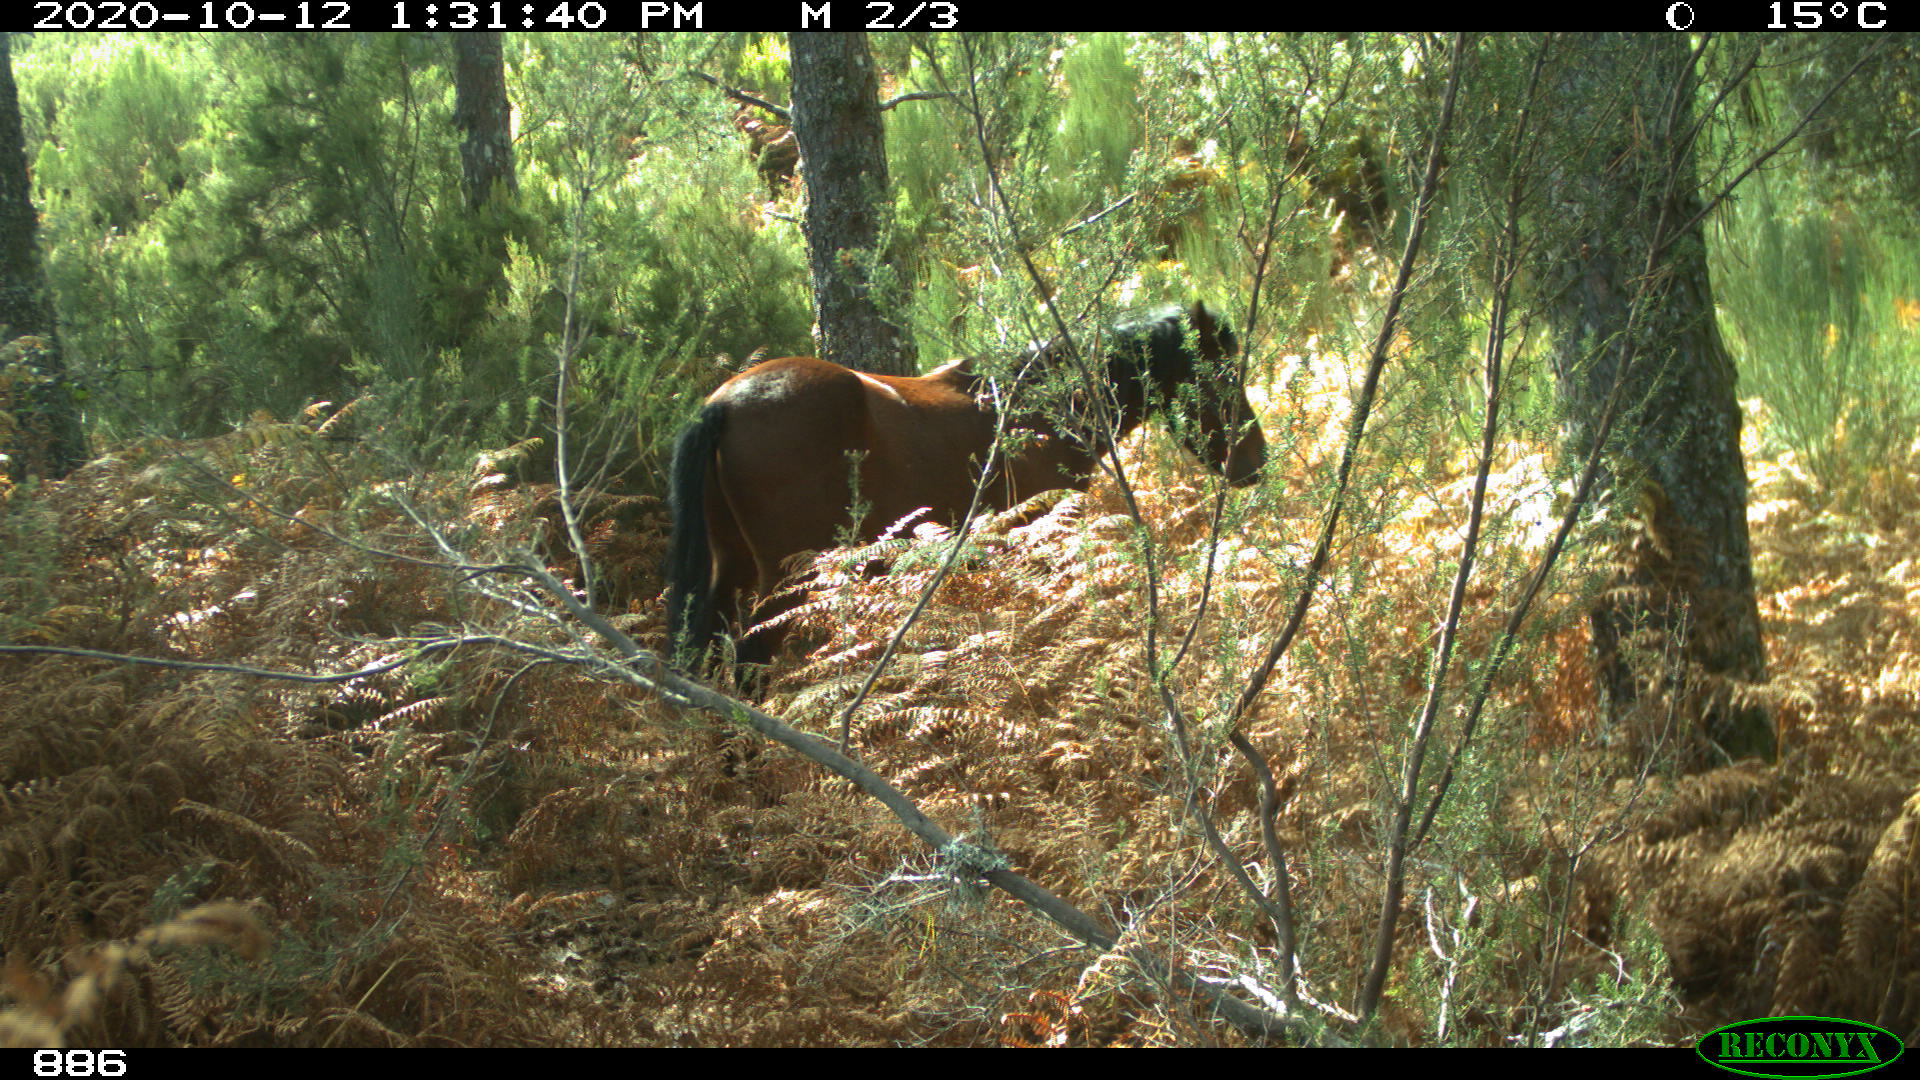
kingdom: Animalia
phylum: Chordata
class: Mammalia
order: Perissodactyla
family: Equidae
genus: Equus
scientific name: Equus caballus
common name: Horse
